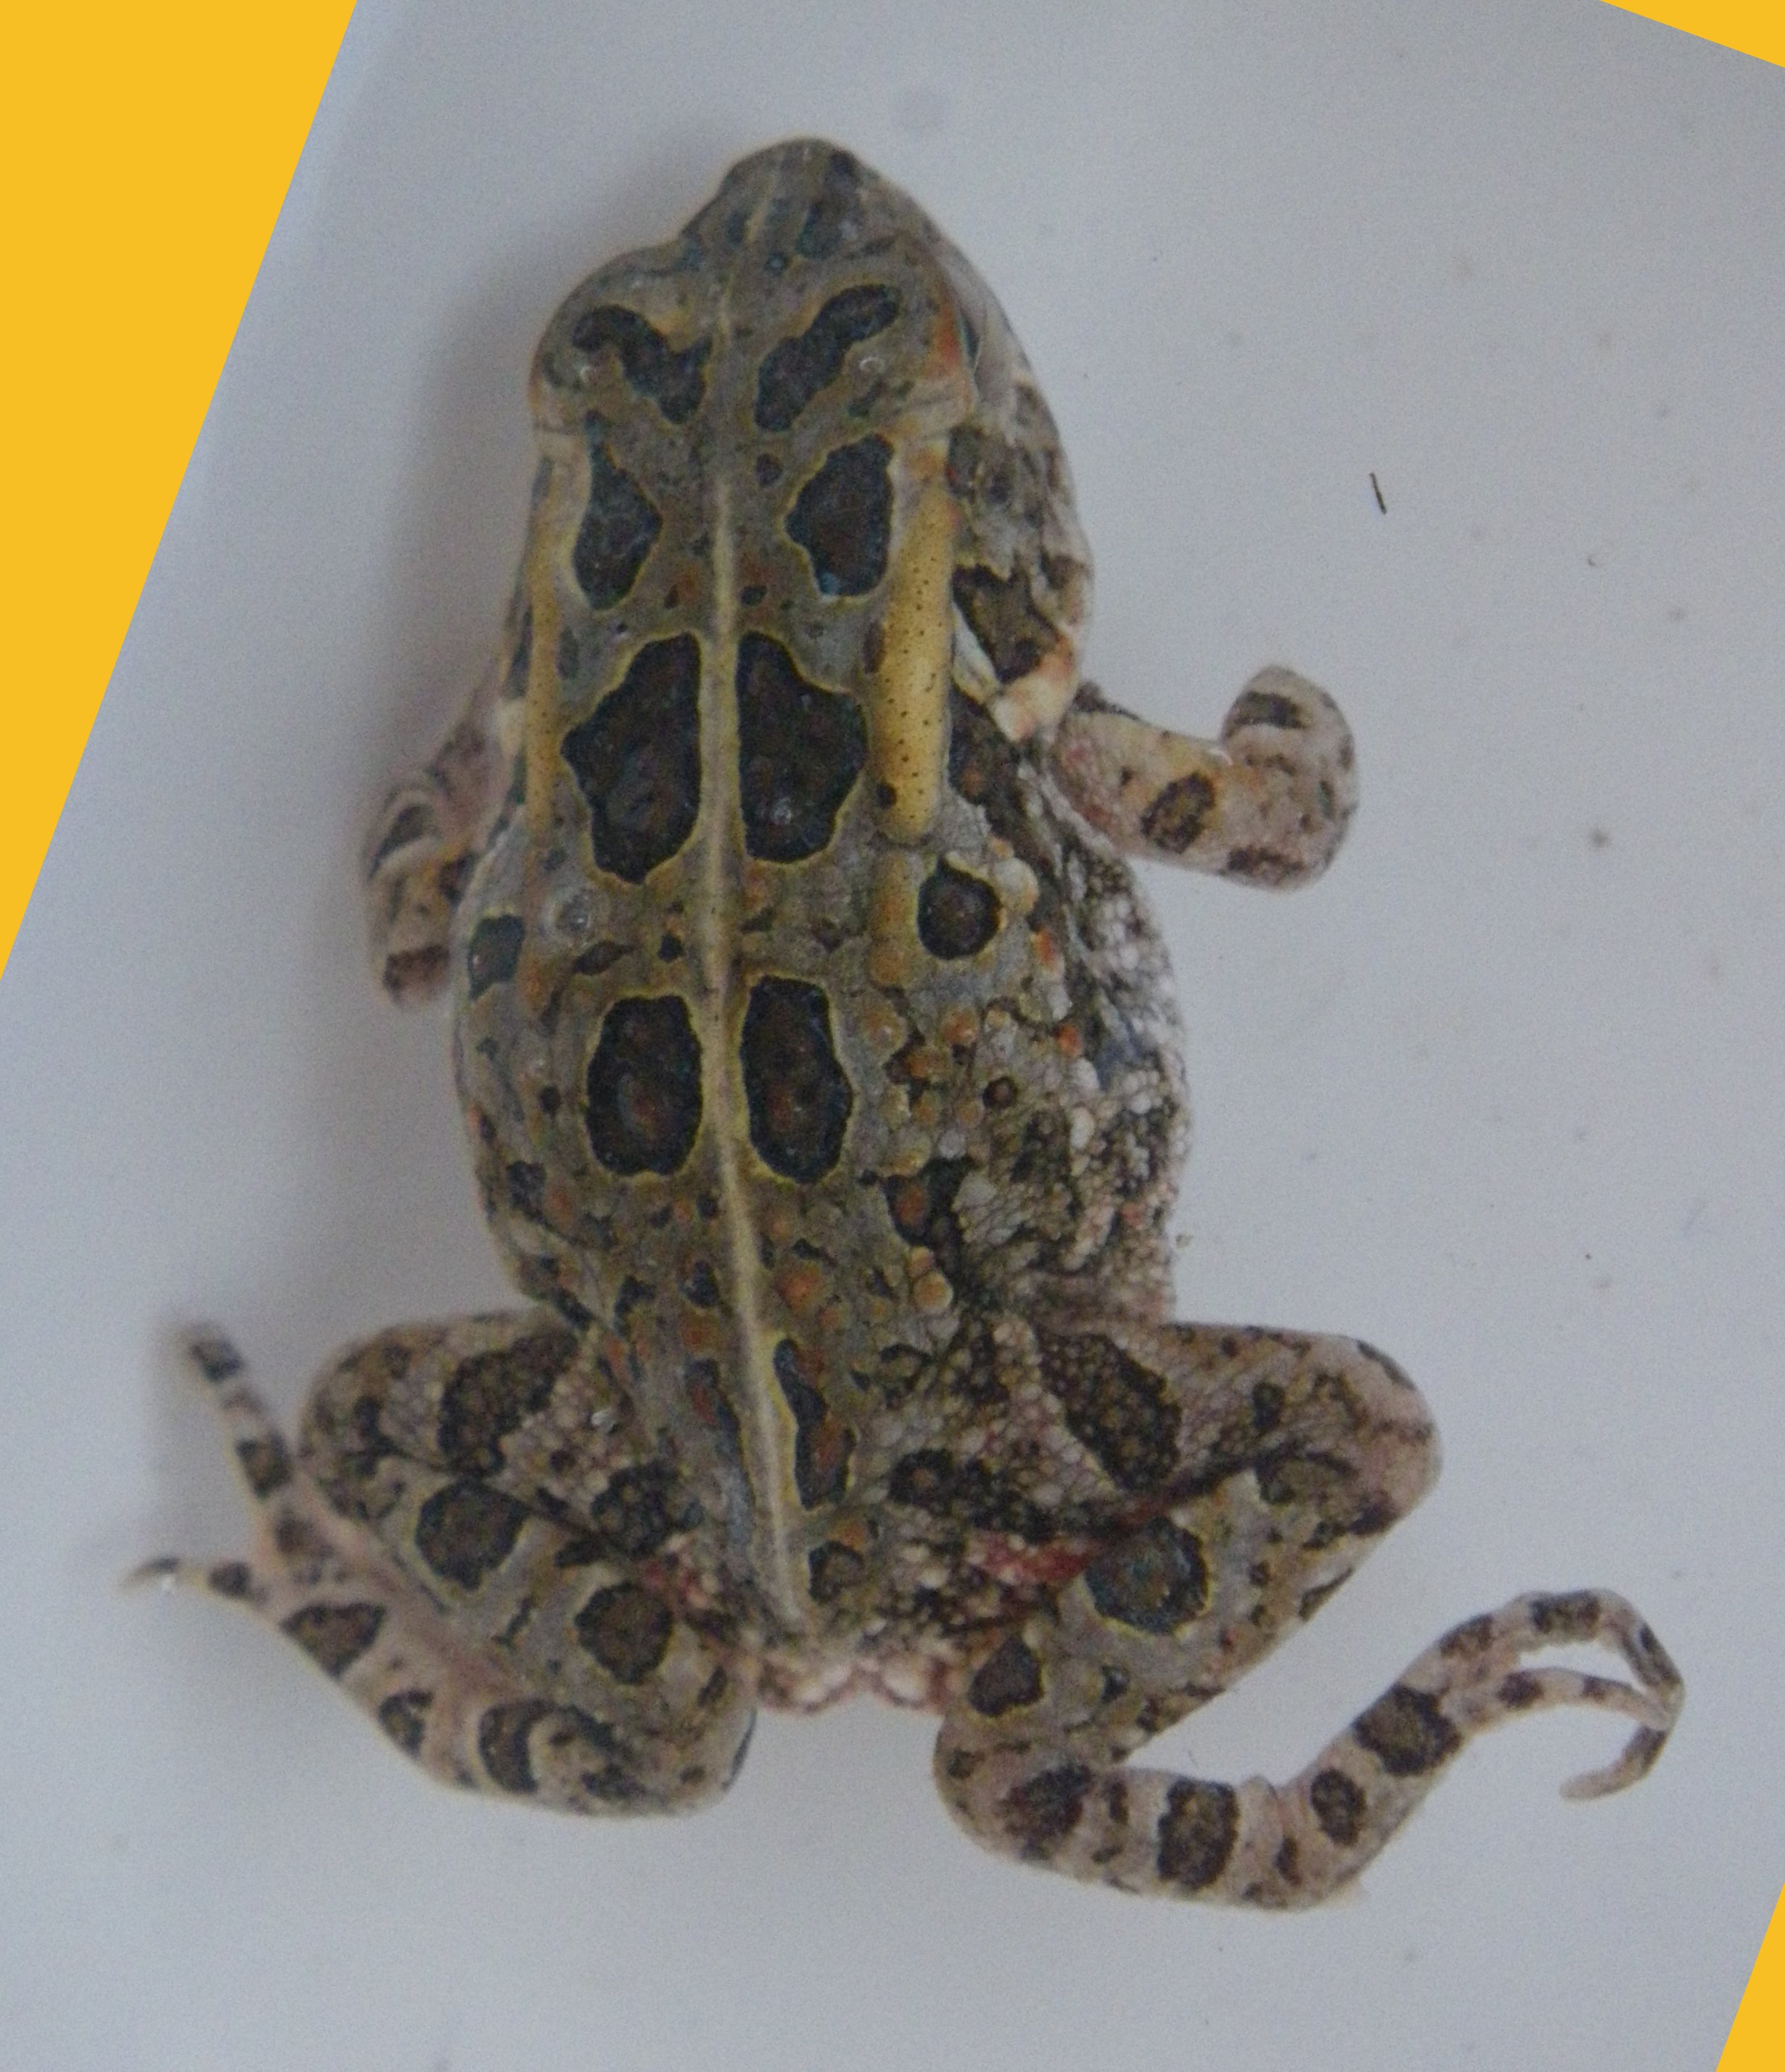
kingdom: Animalia
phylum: Chordata
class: Amphibia
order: Anura
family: Bufonidae
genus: Sclerophrys
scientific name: Sclerophrys lemairii
